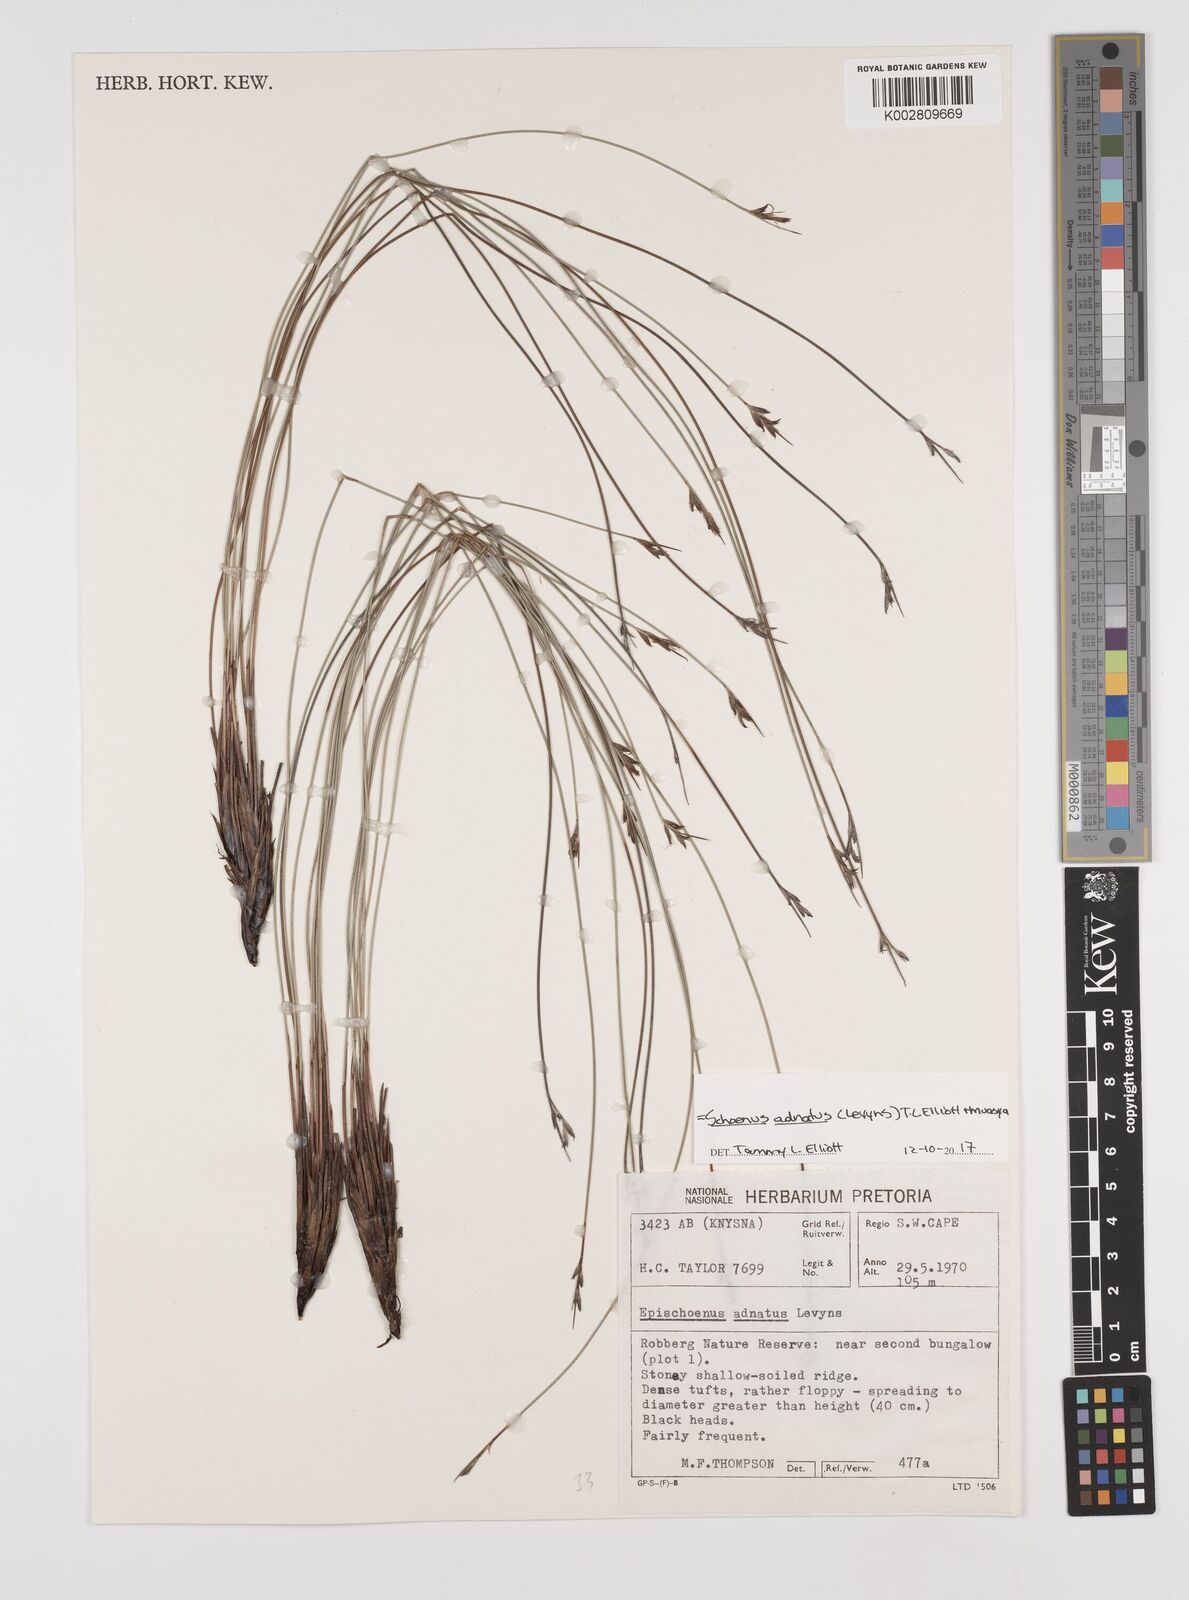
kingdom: Plantae
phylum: Tracheophyta
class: Liliopsida
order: Poales
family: Cyperaceae
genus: Schoenus
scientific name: Schoenus adnatus
